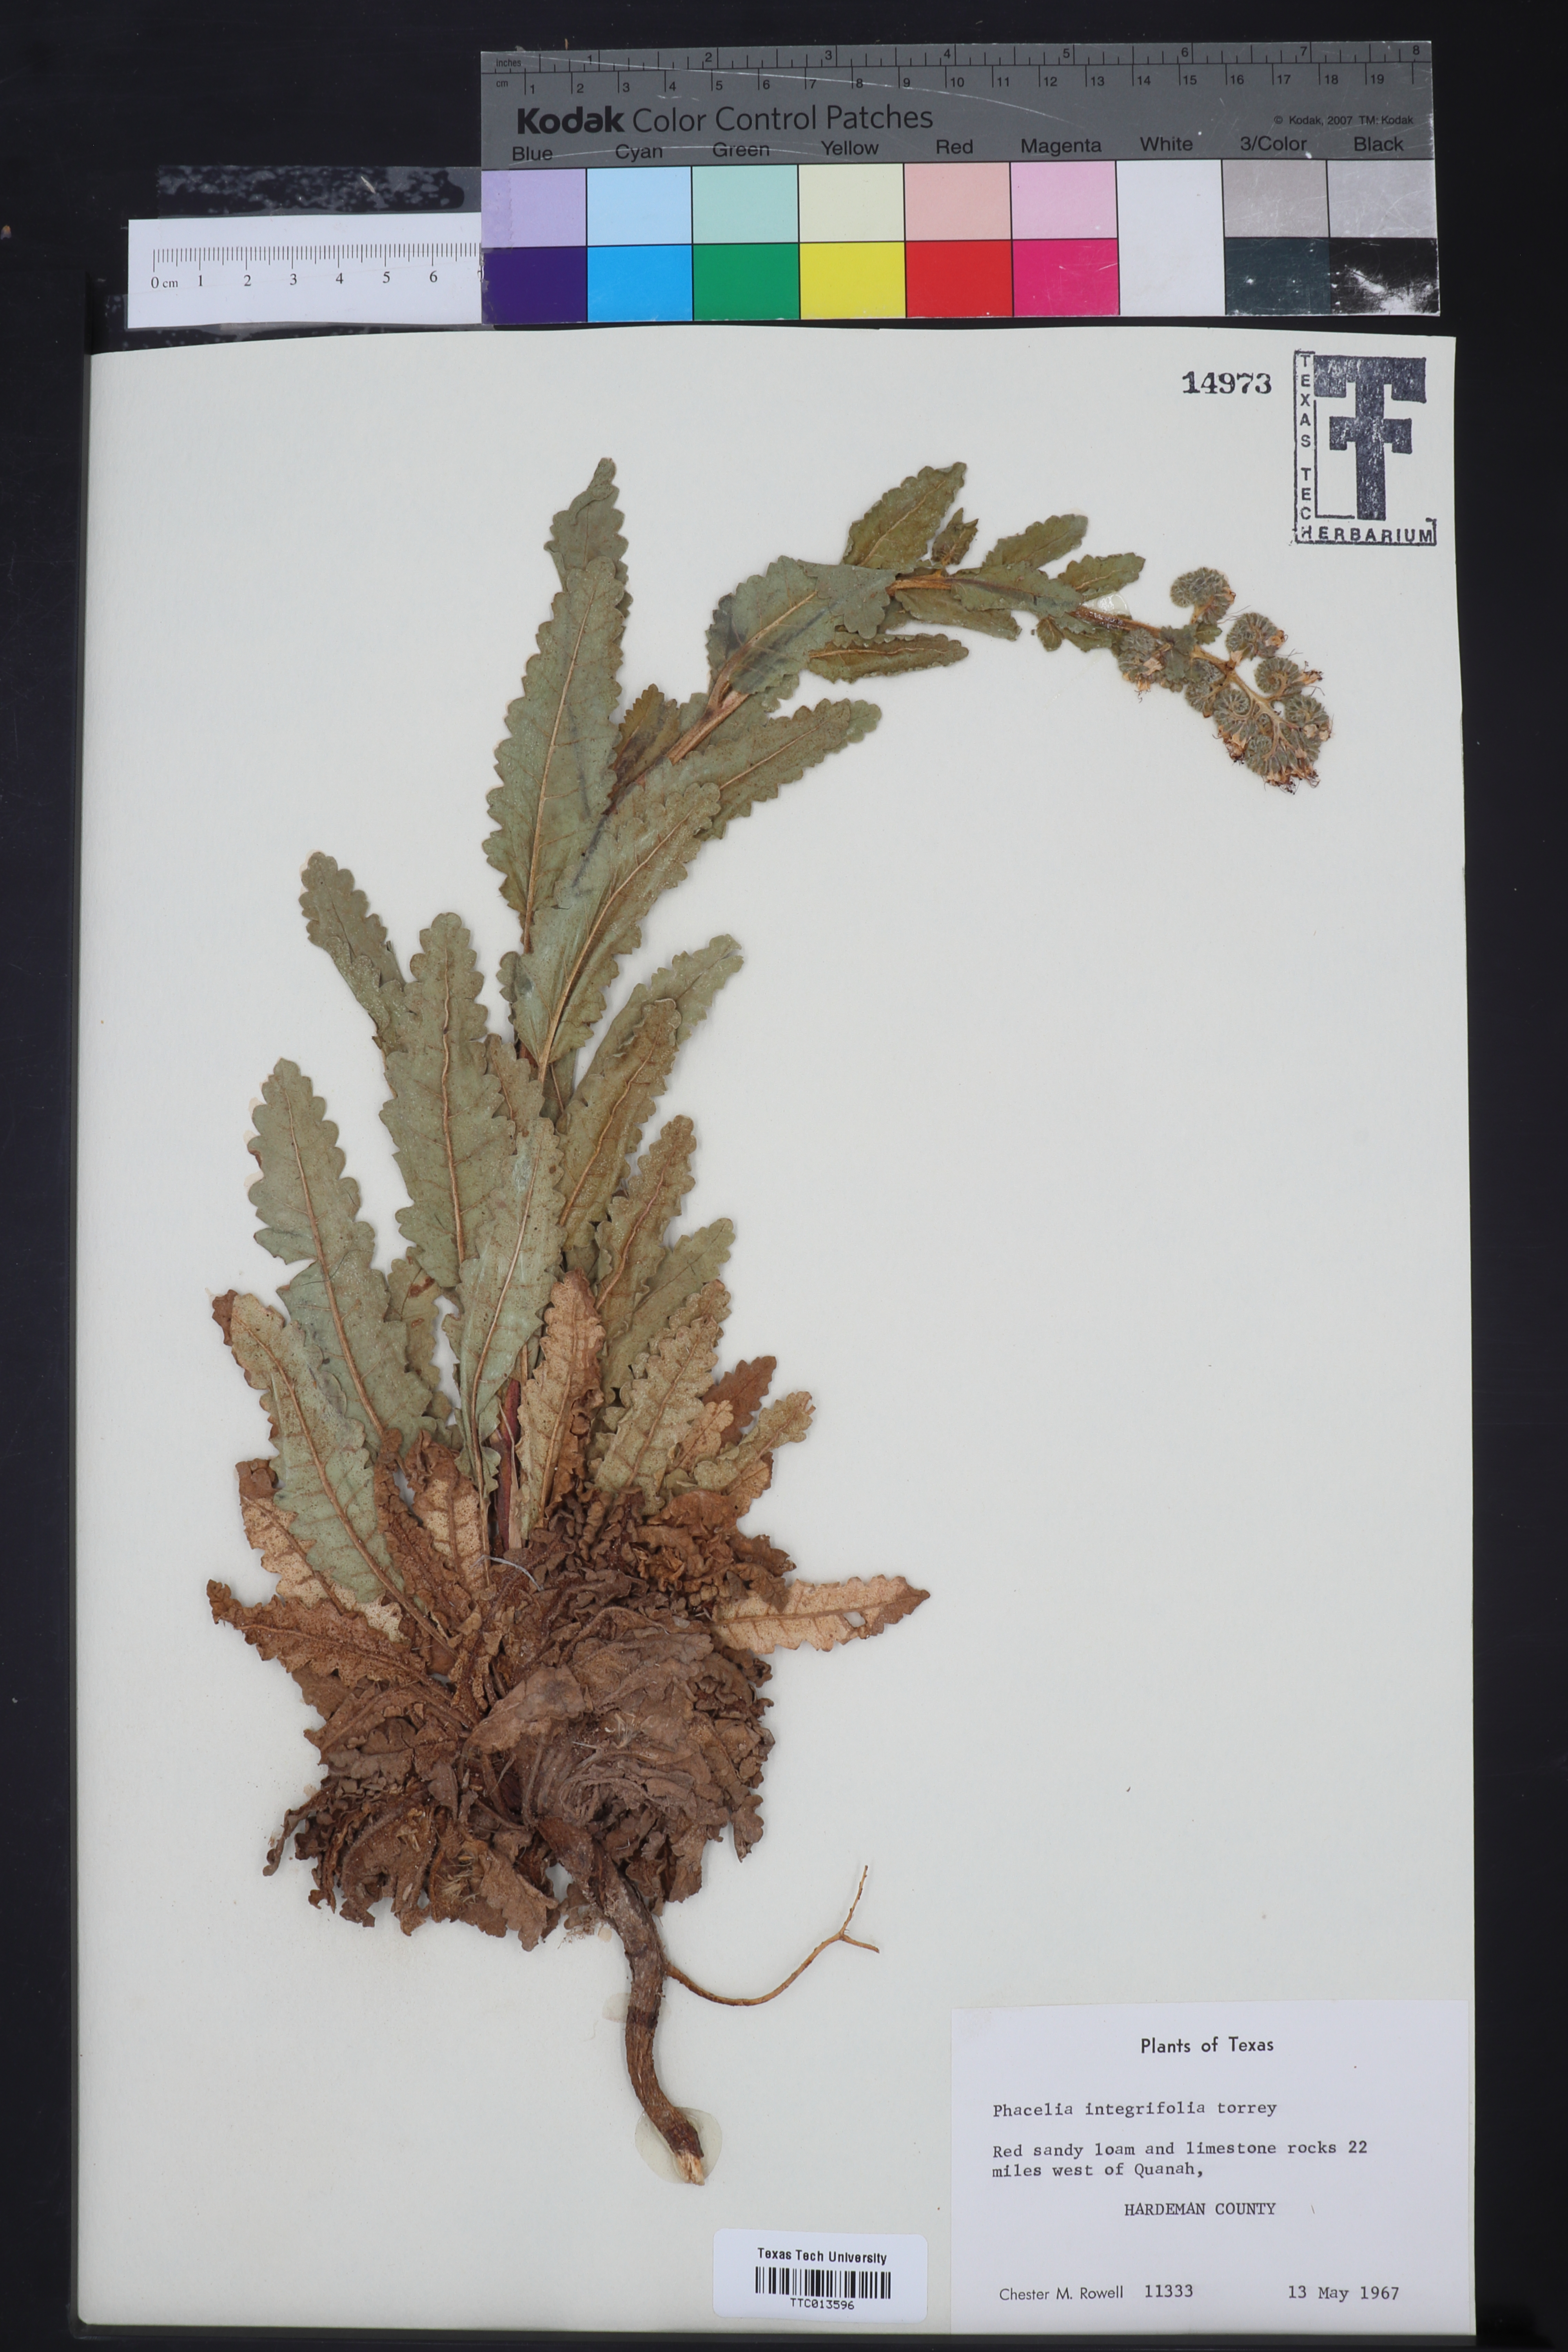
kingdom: Plantae
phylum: Tracheophyta
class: Magnoliopsida
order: Boraginales
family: Hydrophyllaceae
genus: Phacelia
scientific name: Phacelia integrifolia
